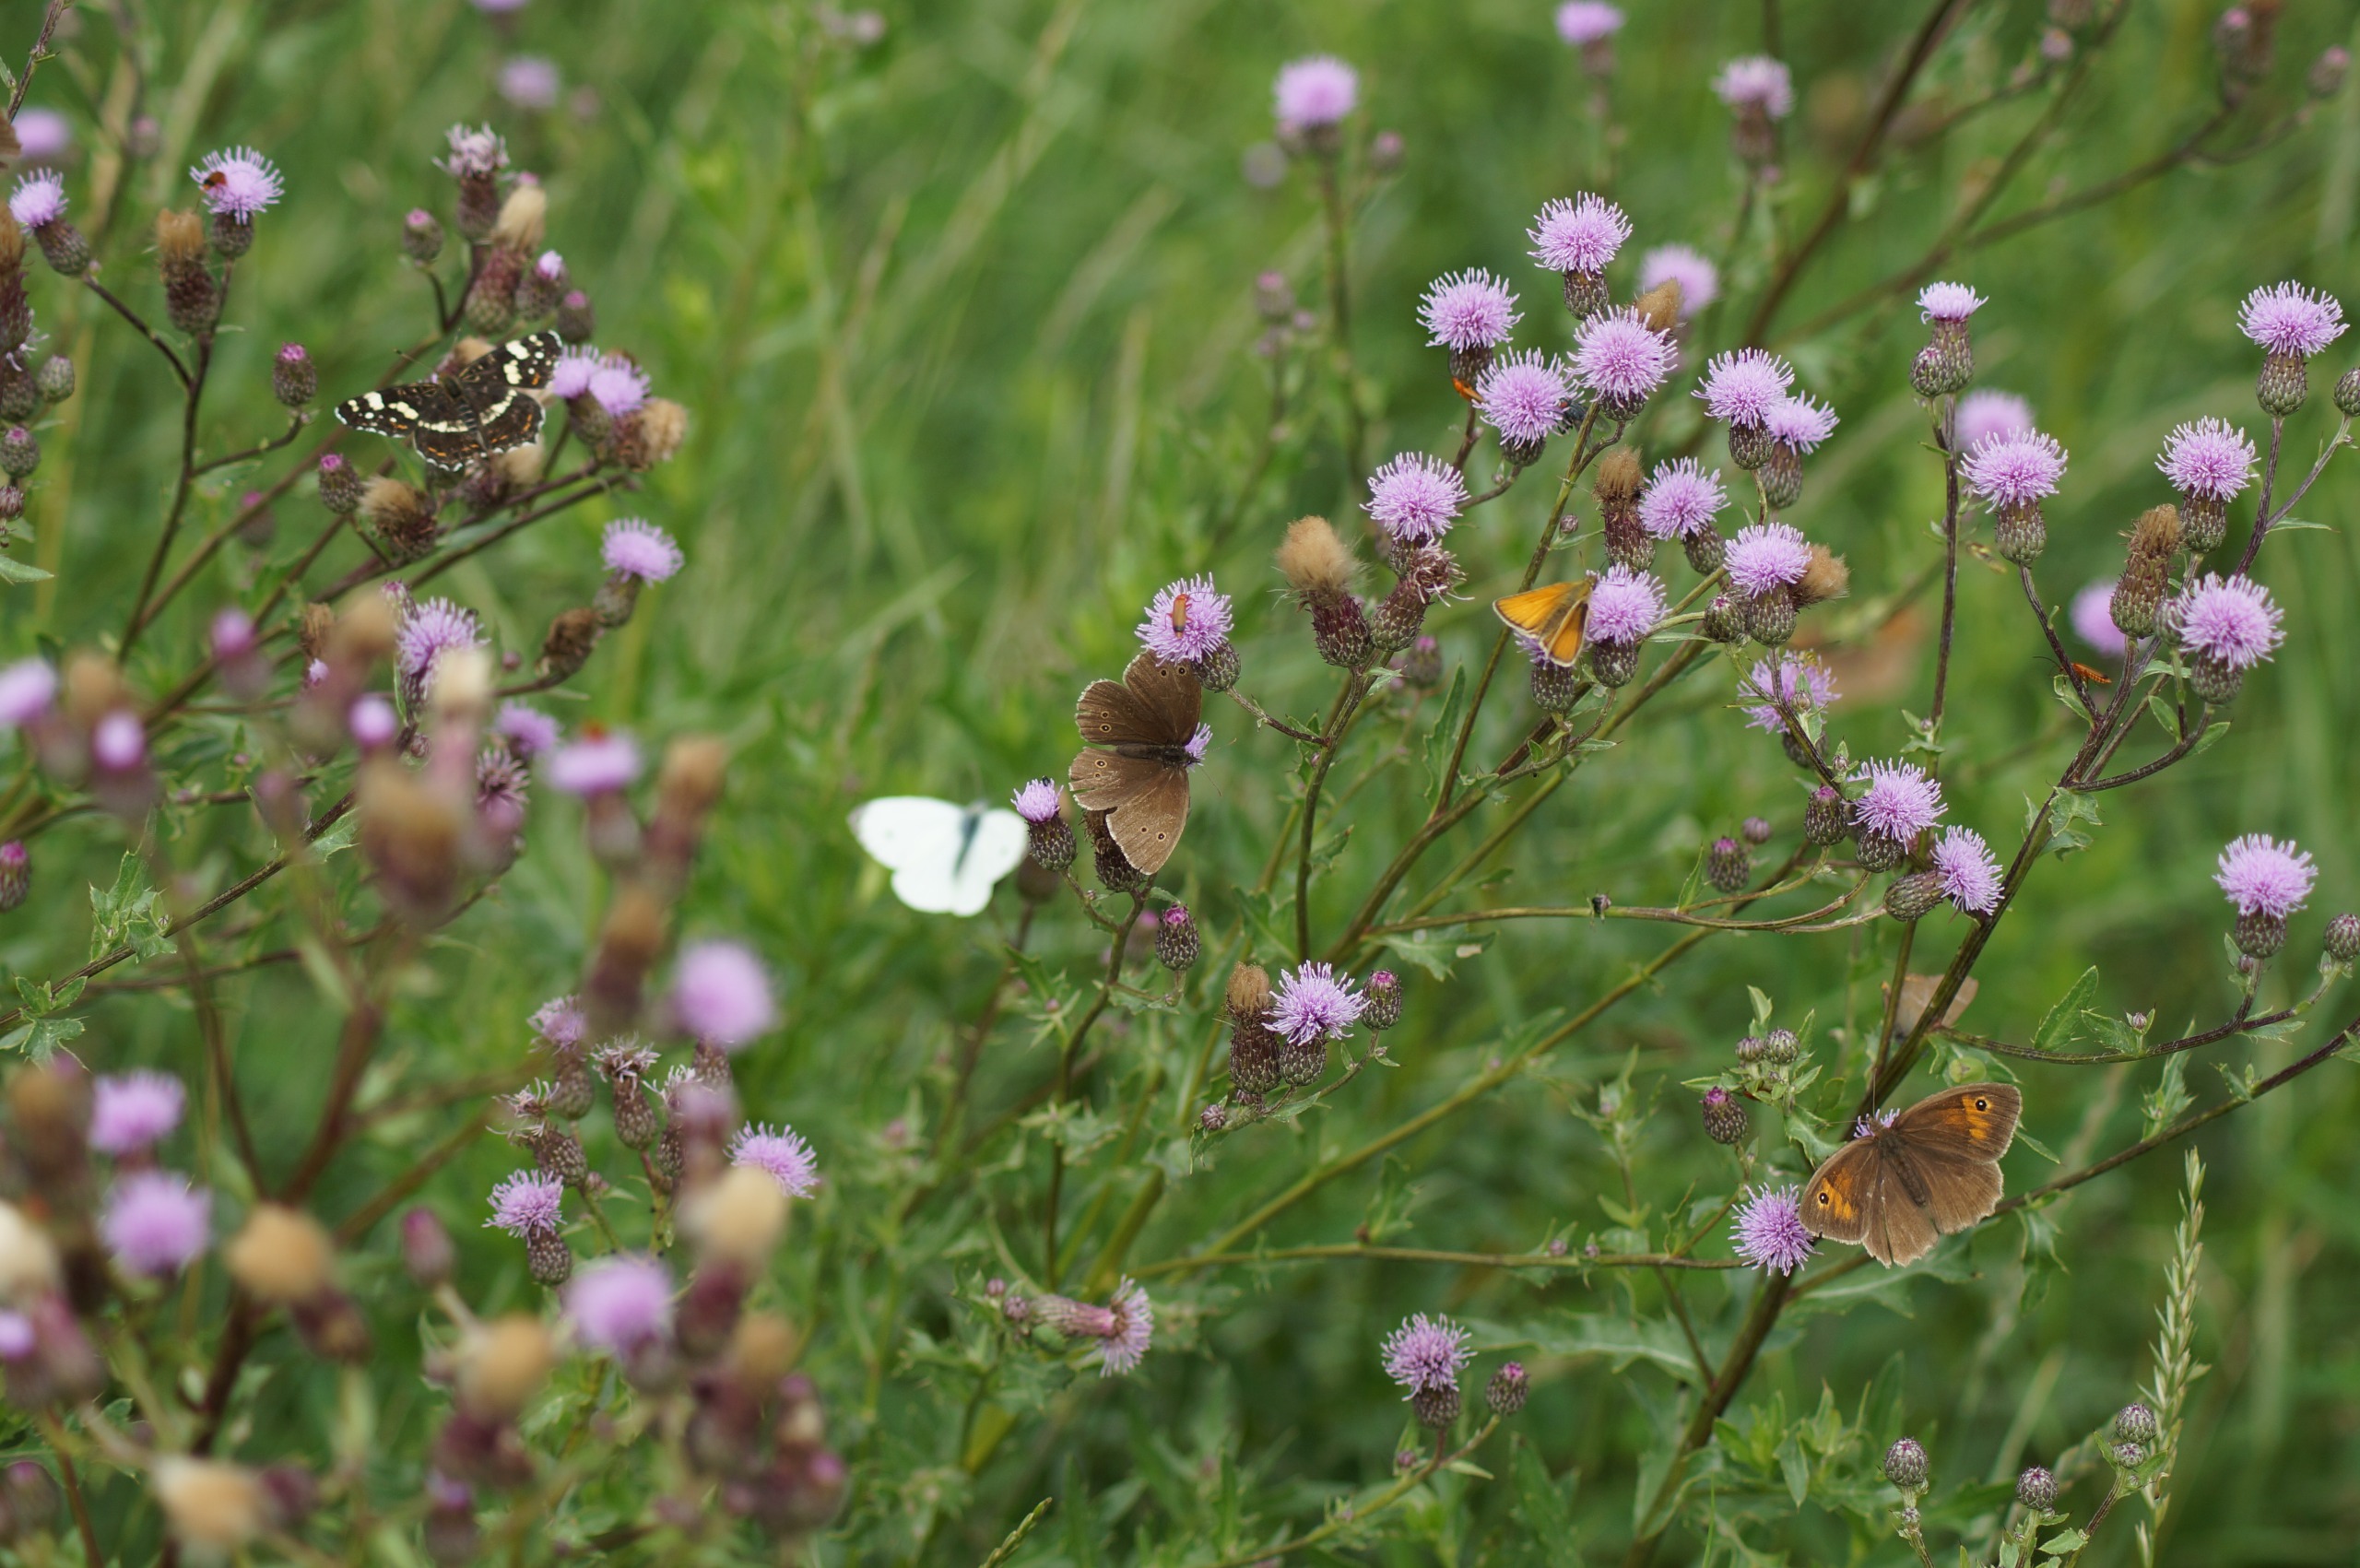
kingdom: Animalia
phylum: Arthropoda
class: Insecta
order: Lepidoptera
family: Nymphalidae
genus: Aphantopus
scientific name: Aphantopus hyperantus
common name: Engrandøje
